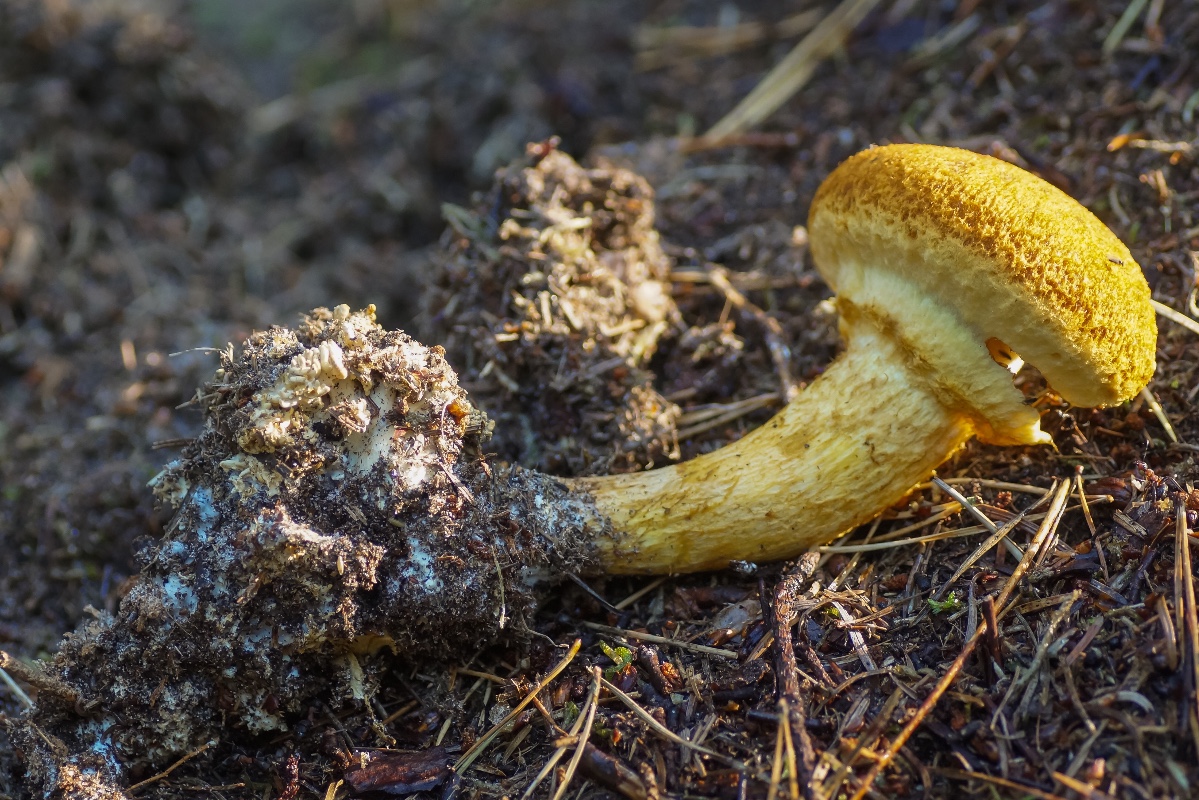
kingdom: Fungi
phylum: Basidiomycota
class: Agaricomycetes
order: Agaricales
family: Hymenogastraceae
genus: Gymnopilus
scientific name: Gymnopilus spectabilis
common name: fibret flammehat
